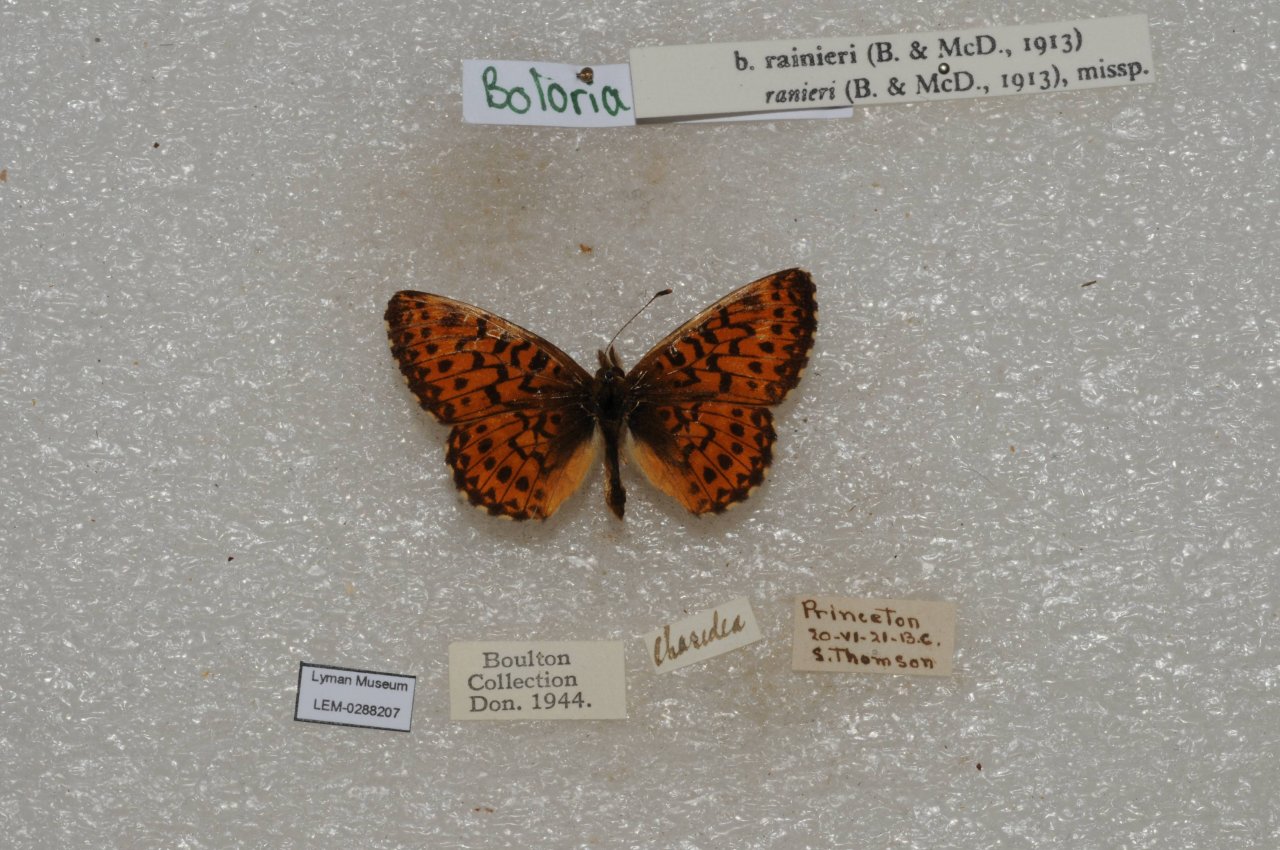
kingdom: Animalia
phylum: Arthropoda
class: Insecta
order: Lepidoptera
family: Nymphalidae
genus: Boloria
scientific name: Boloria chariclea
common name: Arctic Fritillary
